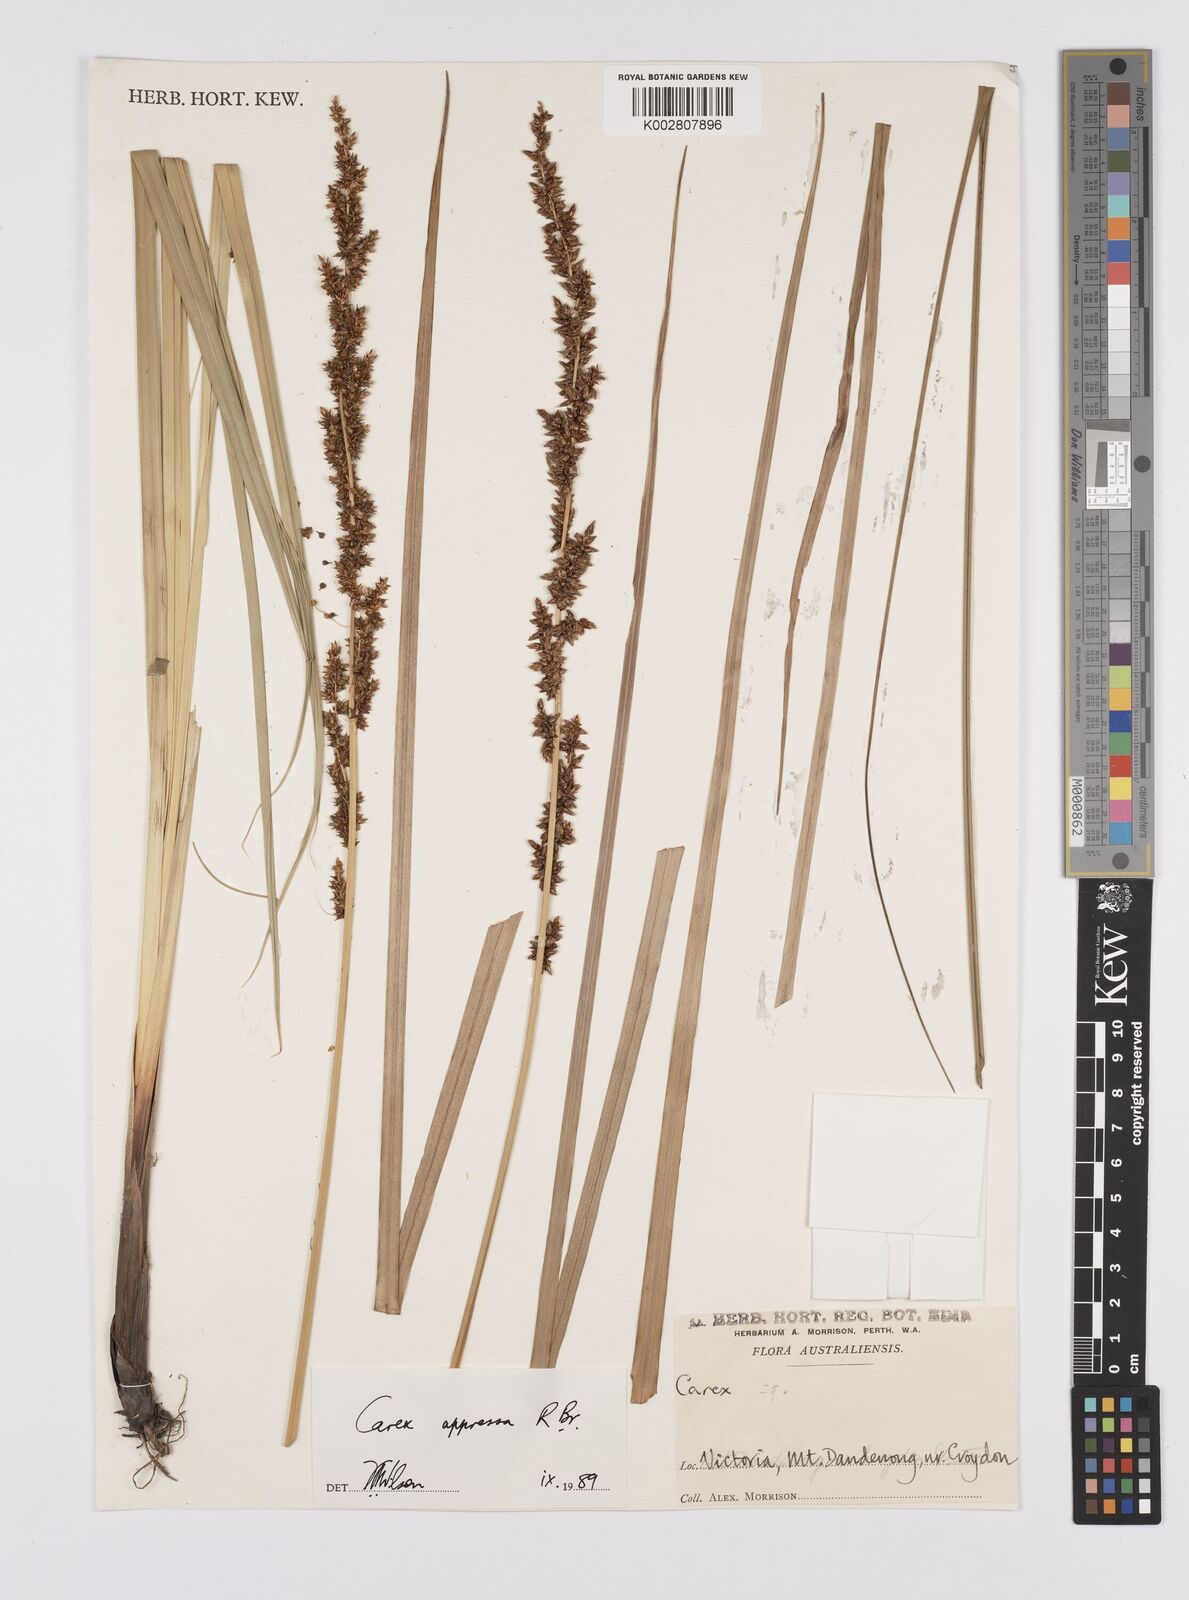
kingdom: Plantae
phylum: Tracheophyta
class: Liliopsida
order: Poales
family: Cyperaceae
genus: Carex
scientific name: Carex appressa
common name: Tussock sedge
